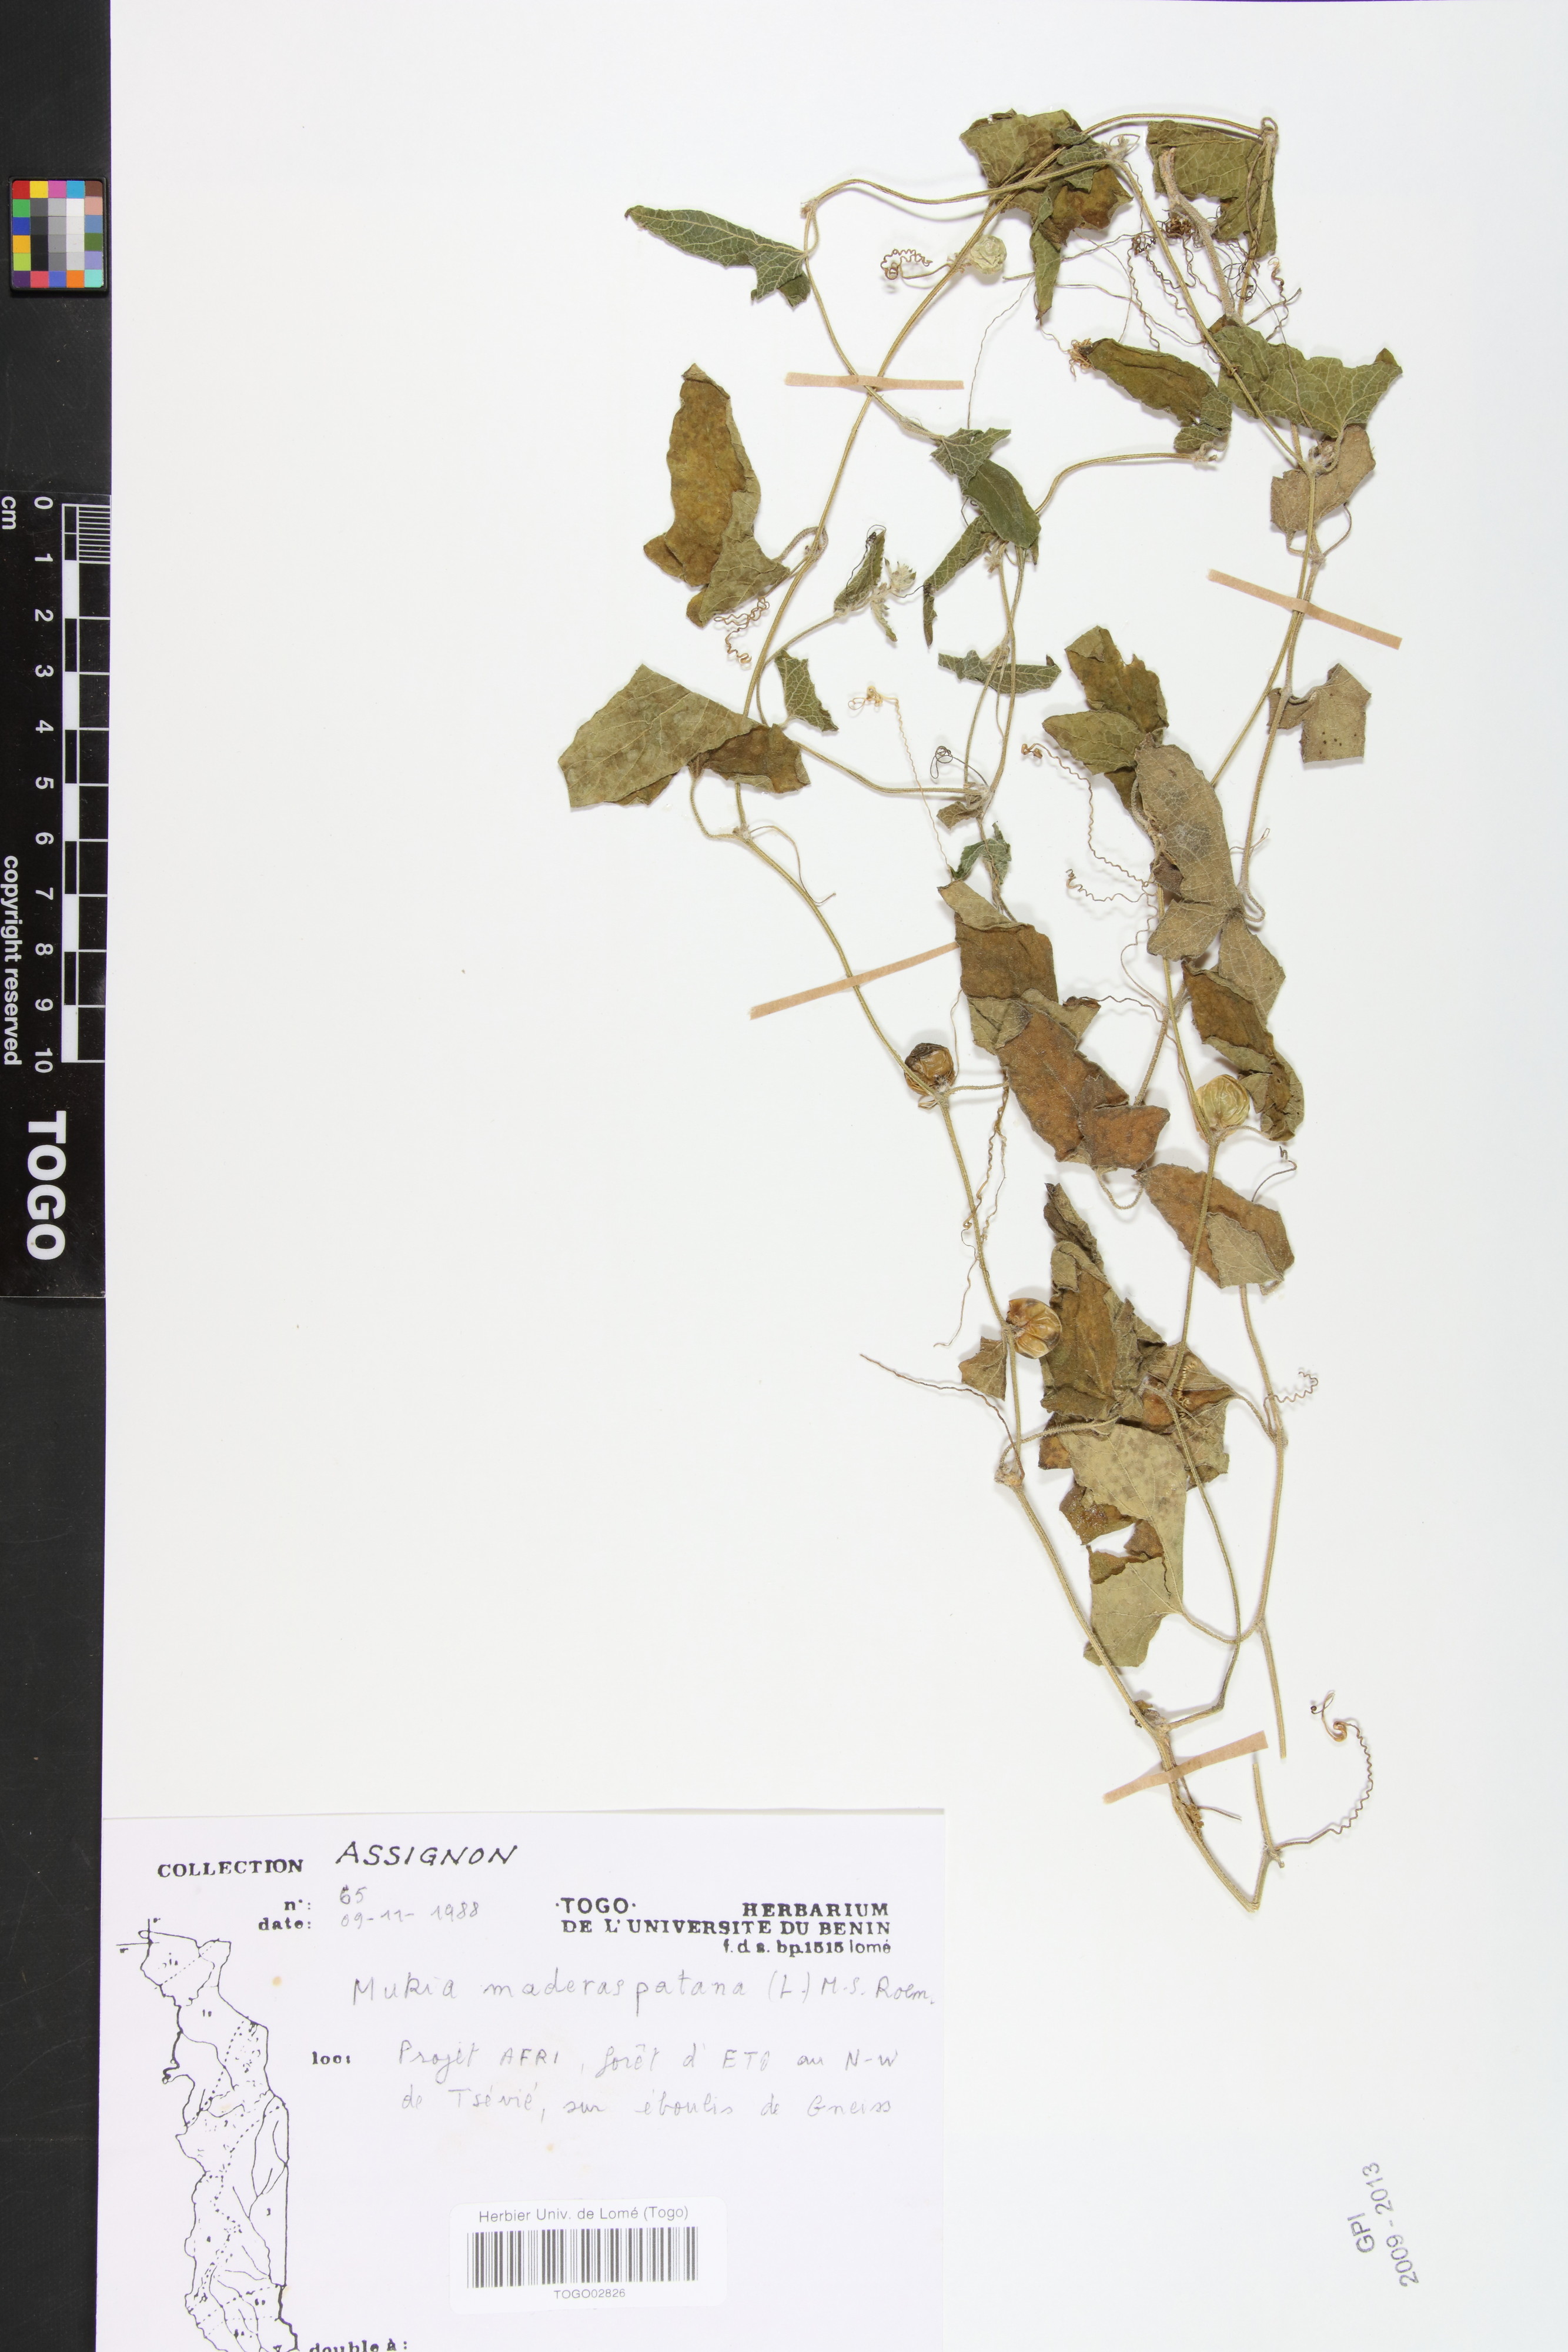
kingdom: Plantae
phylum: Tracheophyta
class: Magnoliopsida
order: Cucurbitales
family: Cucurbitaceae
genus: Cucumis
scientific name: Cucumis maderaspatanus
